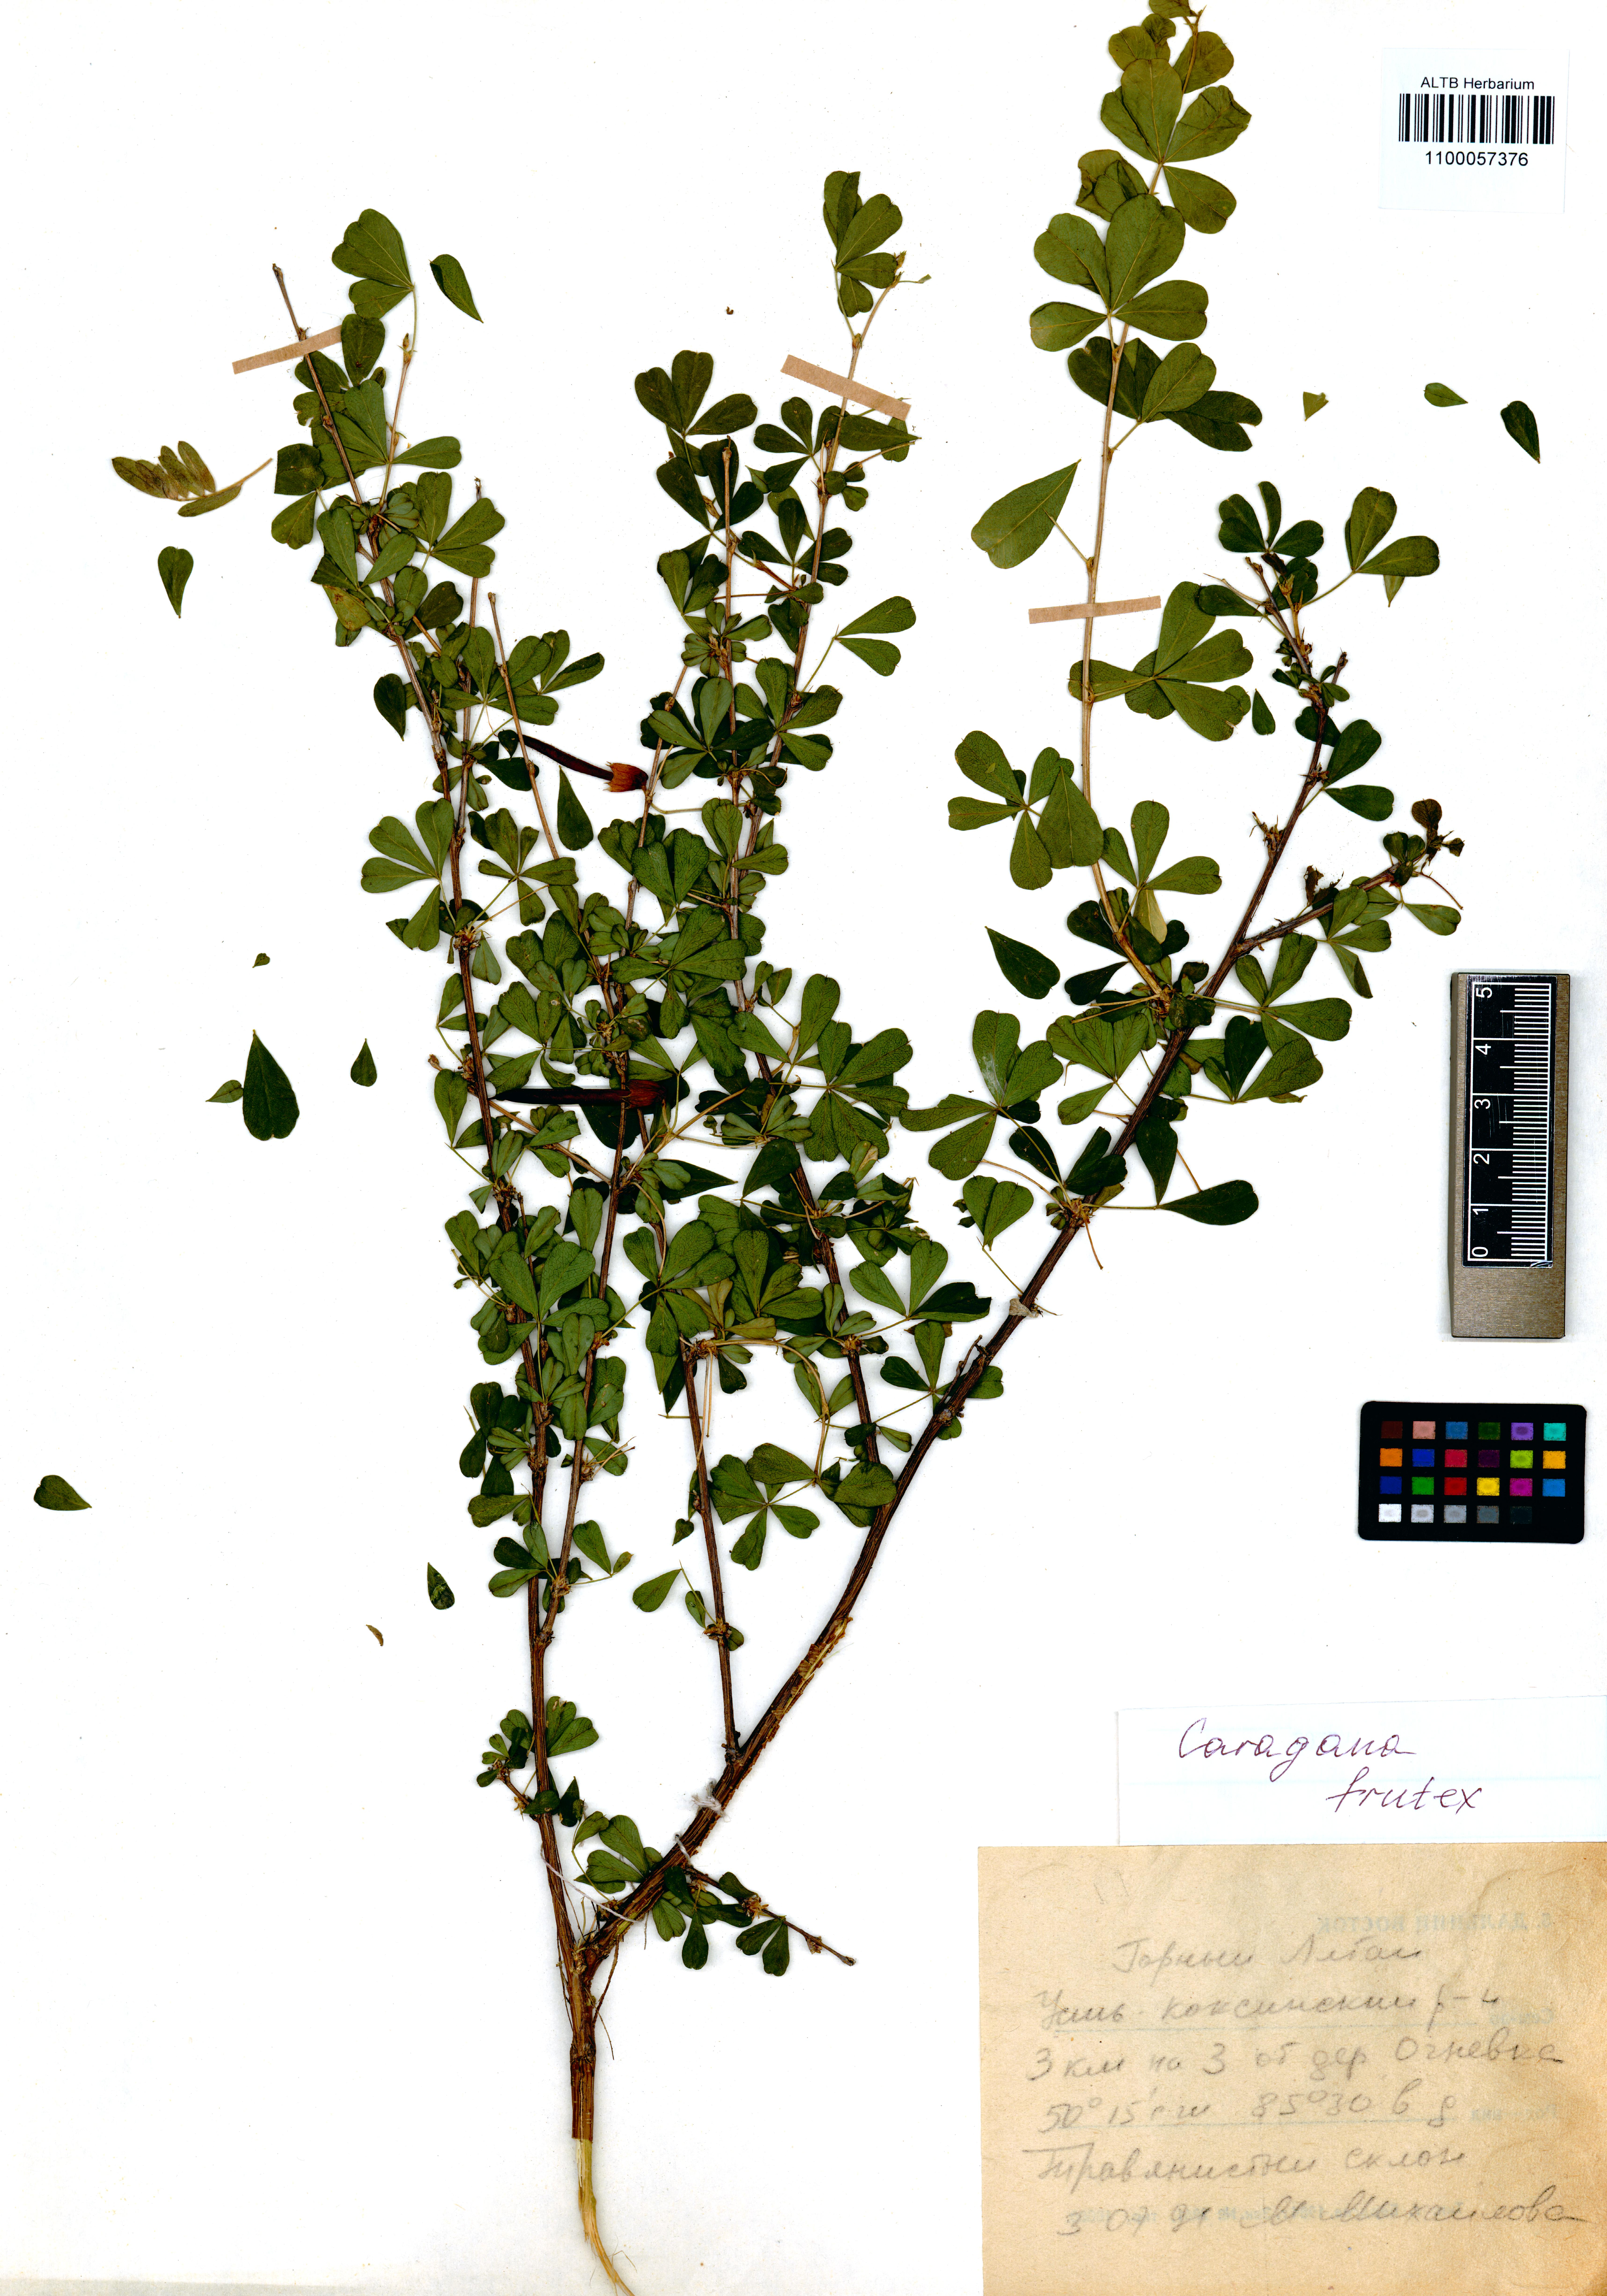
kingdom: Plantae
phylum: Tracheophyta
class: Magnoliopsida
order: Fabales
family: Fabaceae
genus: Caragana
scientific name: Caragana frutex
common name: Russian peashrub
